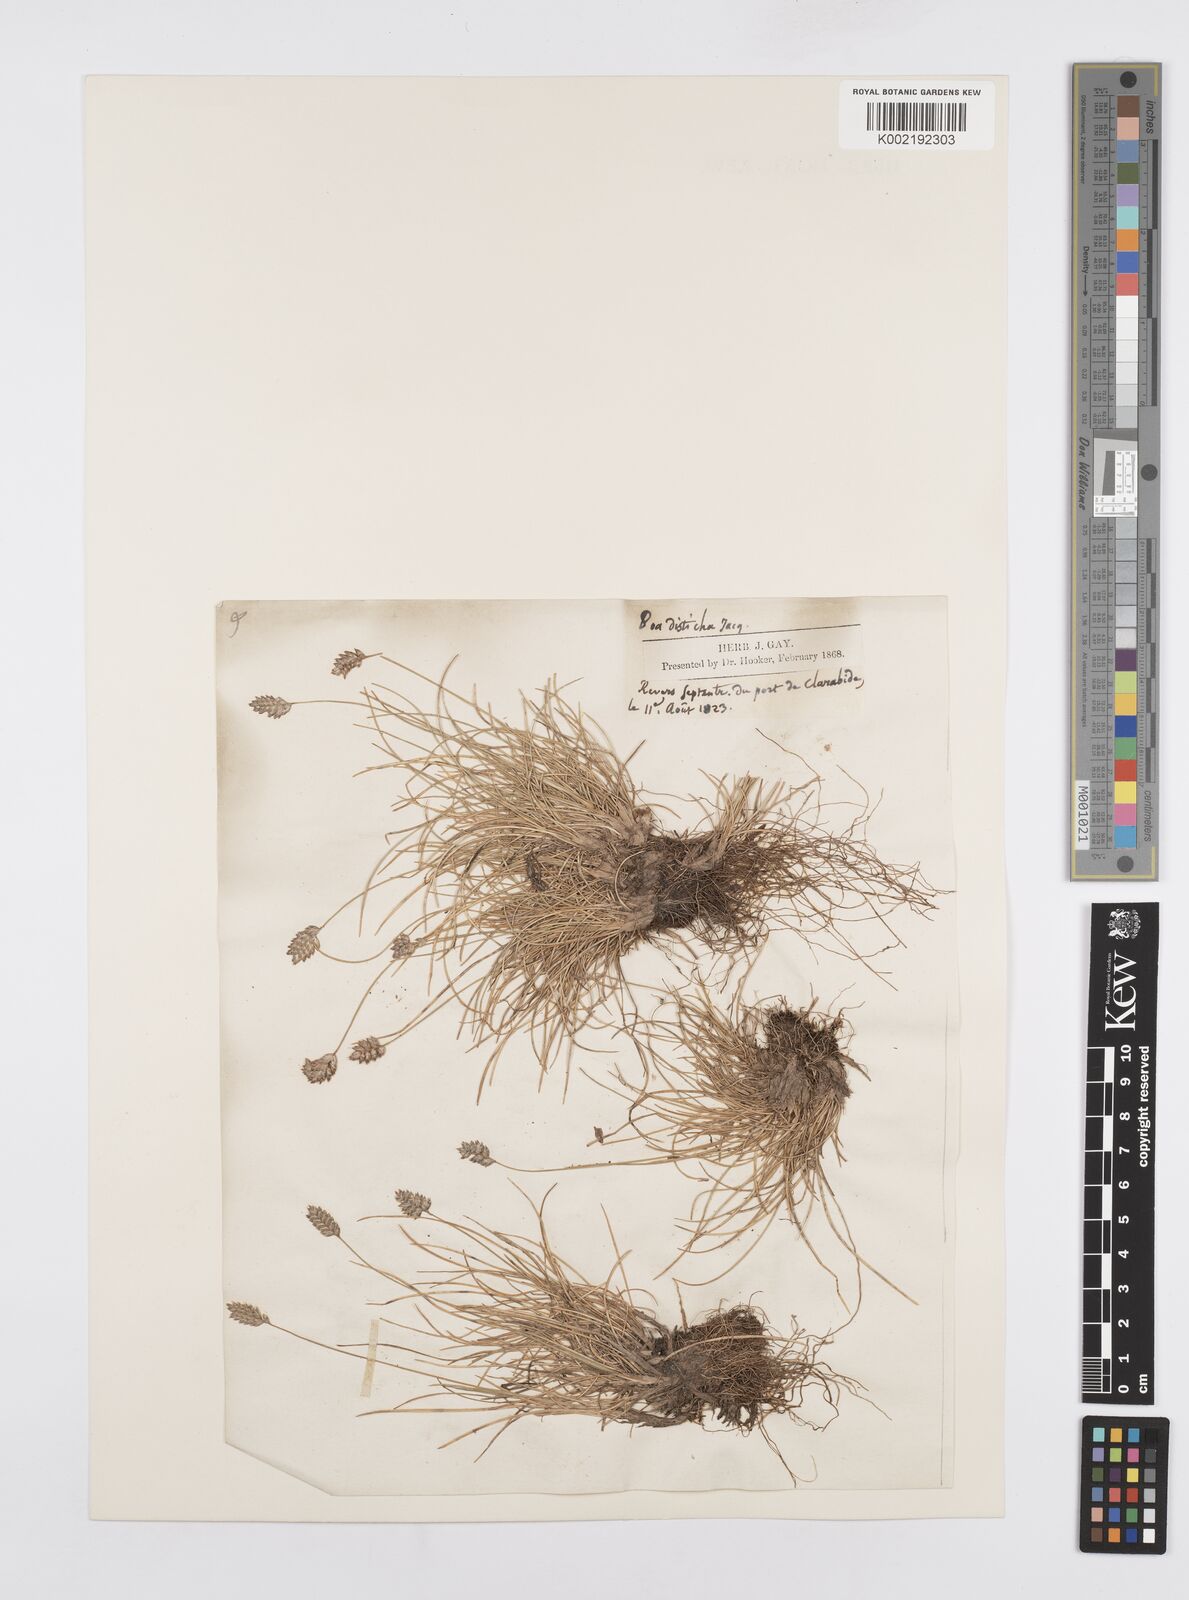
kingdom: Plantae
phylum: Tracheophyta
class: Liliopsida
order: Poales
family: Poaceae
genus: Oreochloa
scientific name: Oreochloa disticha
